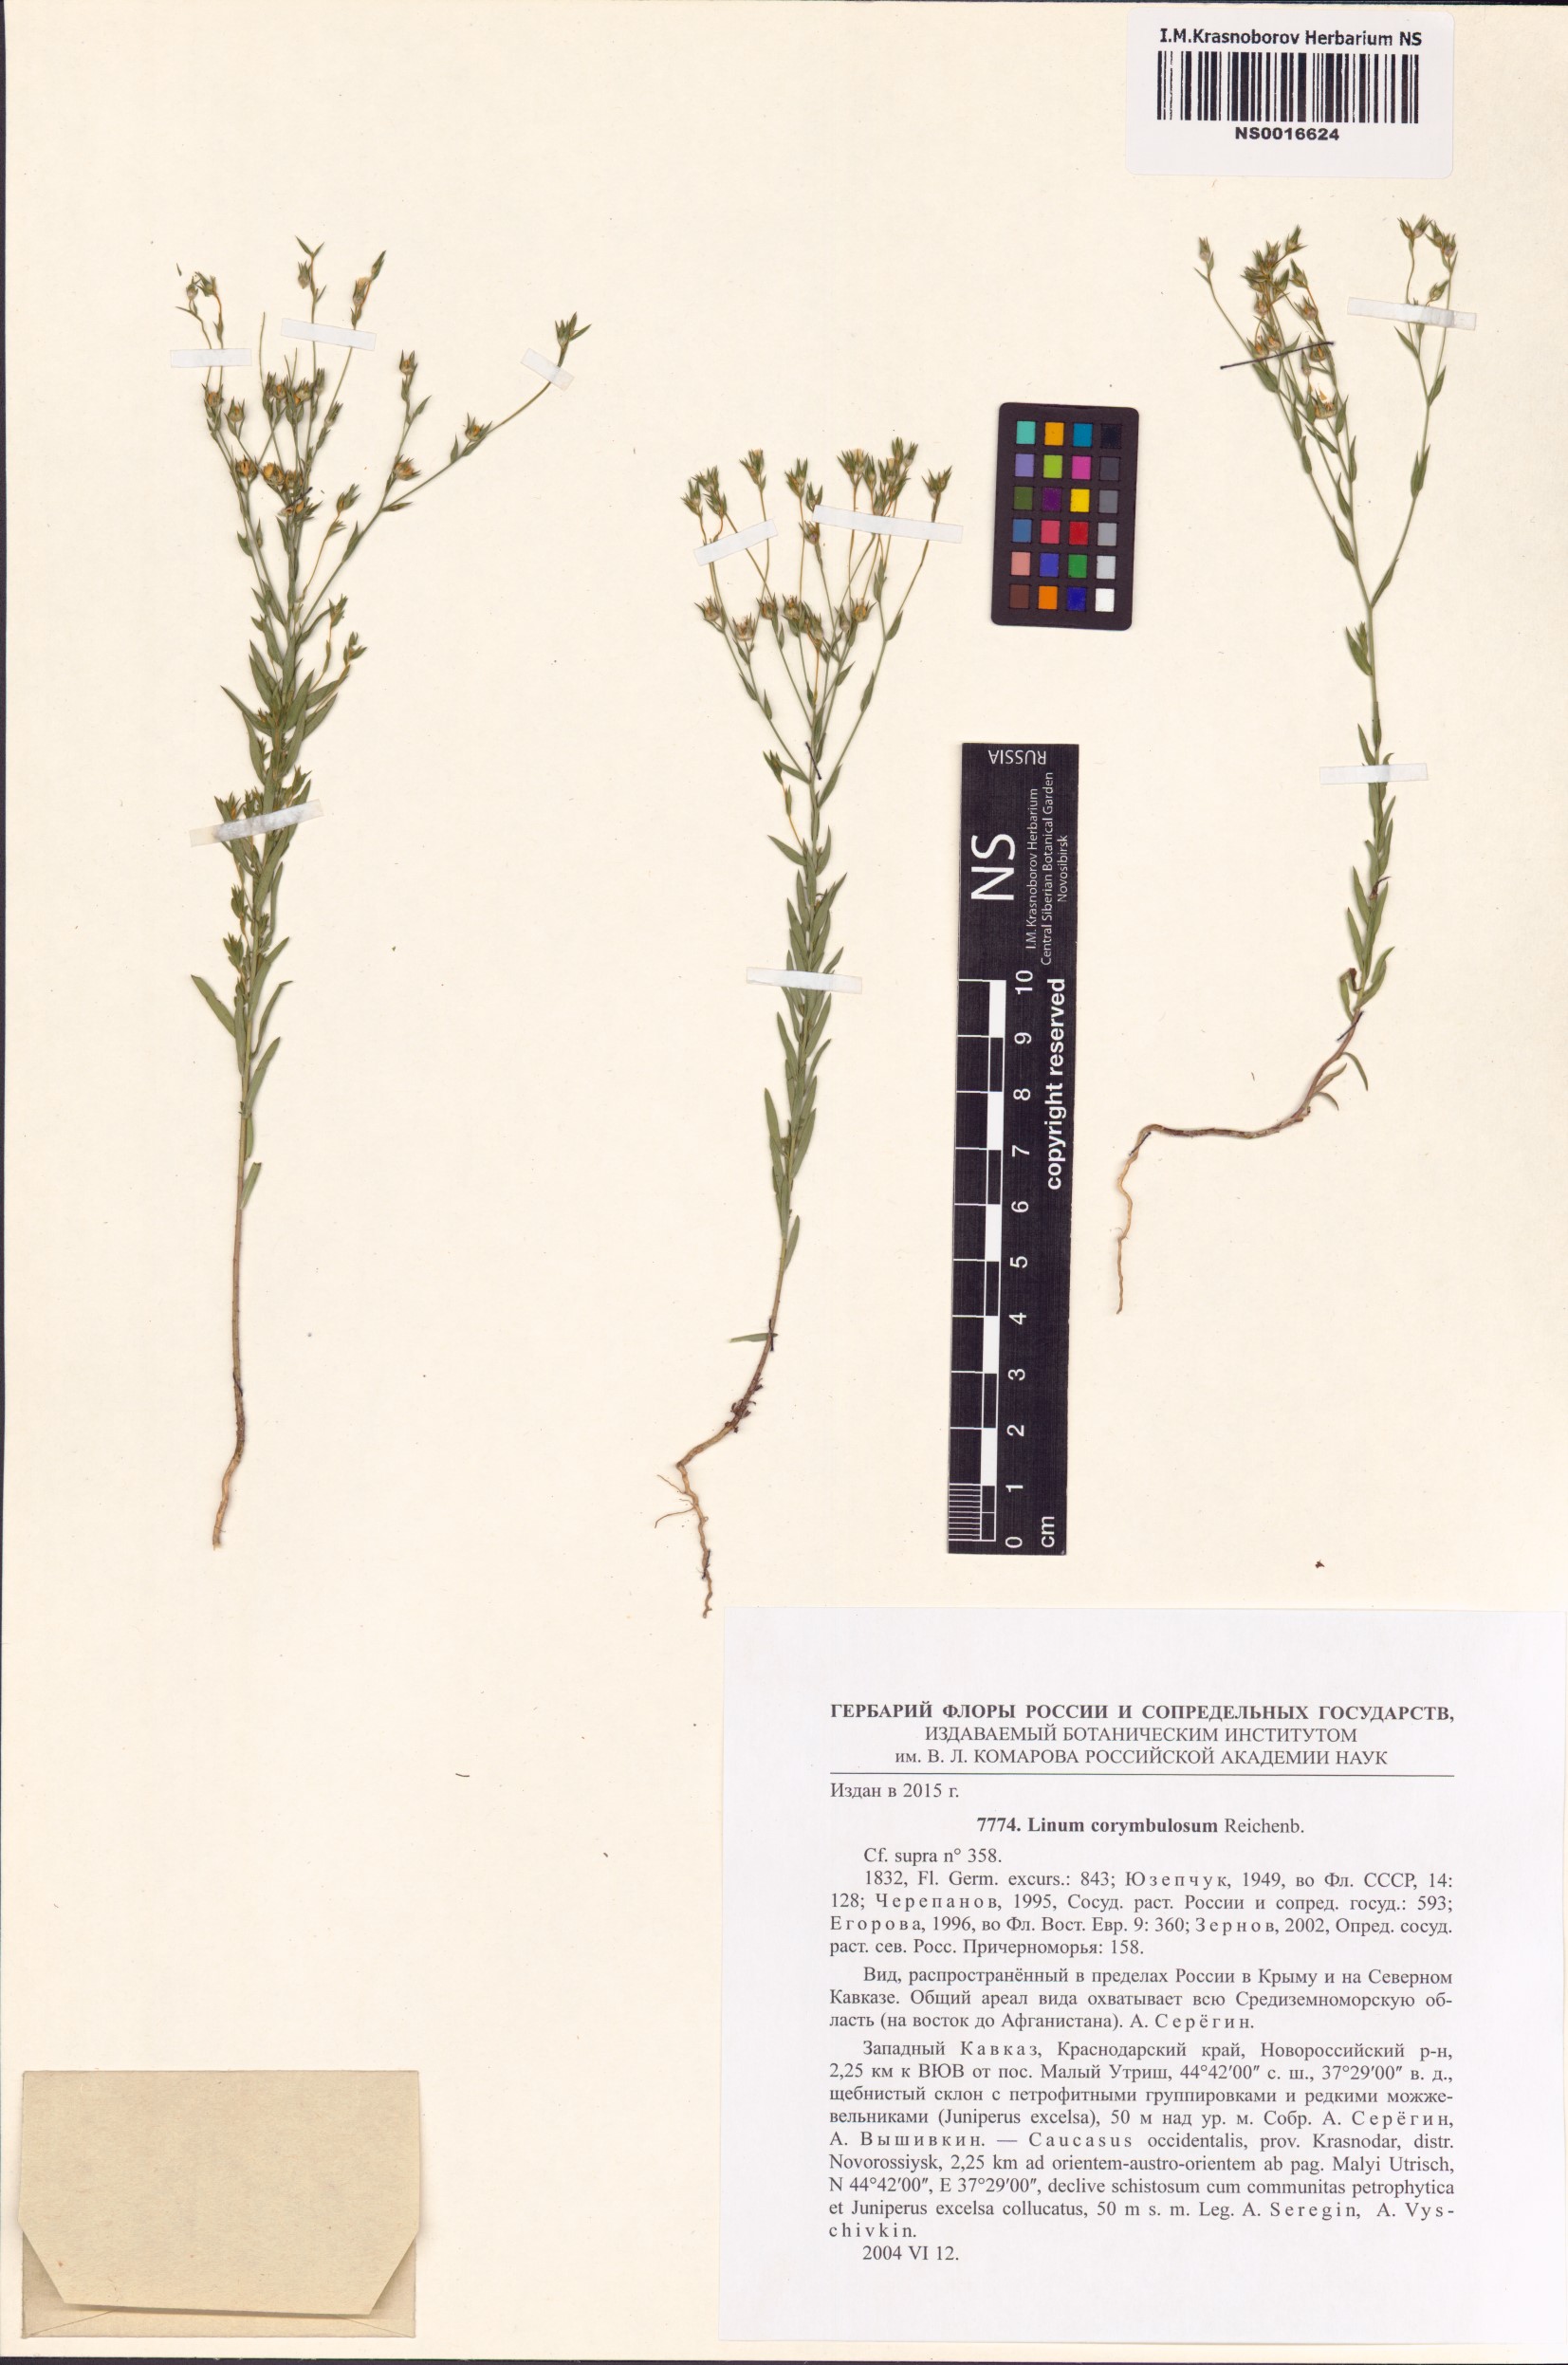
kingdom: Plantae
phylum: Tracheophyta
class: Magnoliopsida
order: Malpighiales
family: Linaceae
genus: Linum
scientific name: Linum corymbulosum
